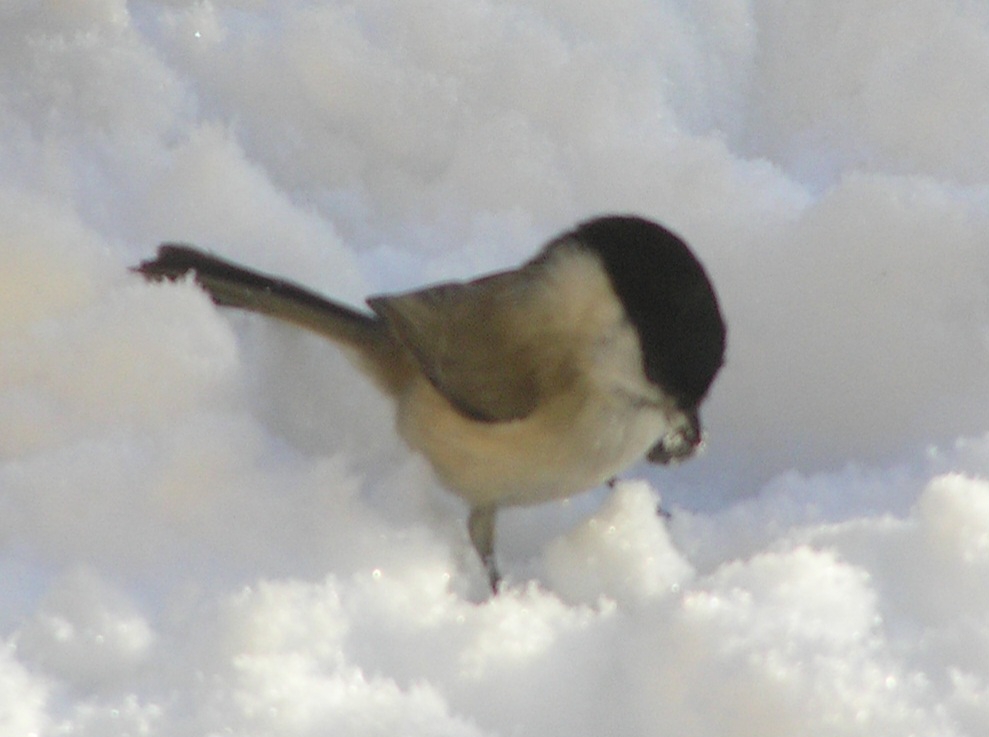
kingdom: Animalia
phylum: Chordata
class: Aves
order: Passeriformes
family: Paridae
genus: Poecile
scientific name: Poecile palustris
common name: Sumpmejse
